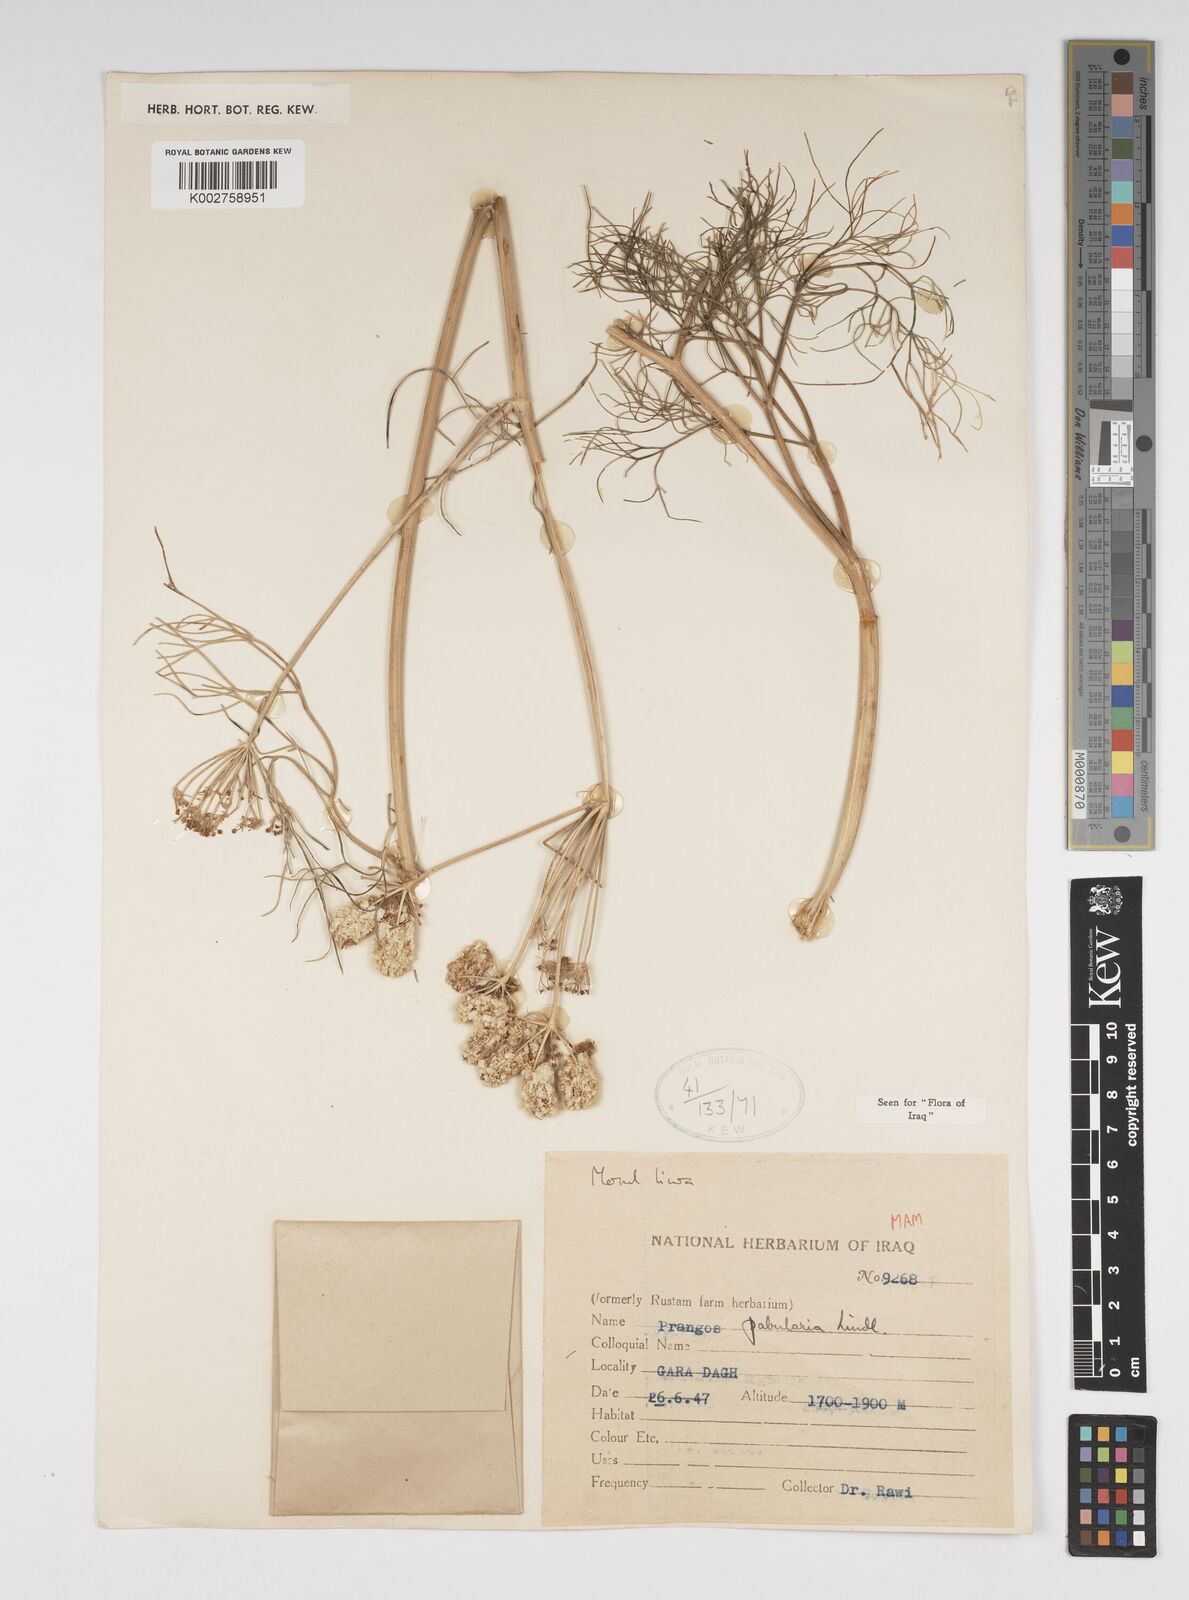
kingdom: Plantae
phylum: Tracheophyta
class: Magnoliopsida
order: Apiales
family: Apiaceae
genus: Prangos
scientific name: Prangos pabularia
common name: Yugan
